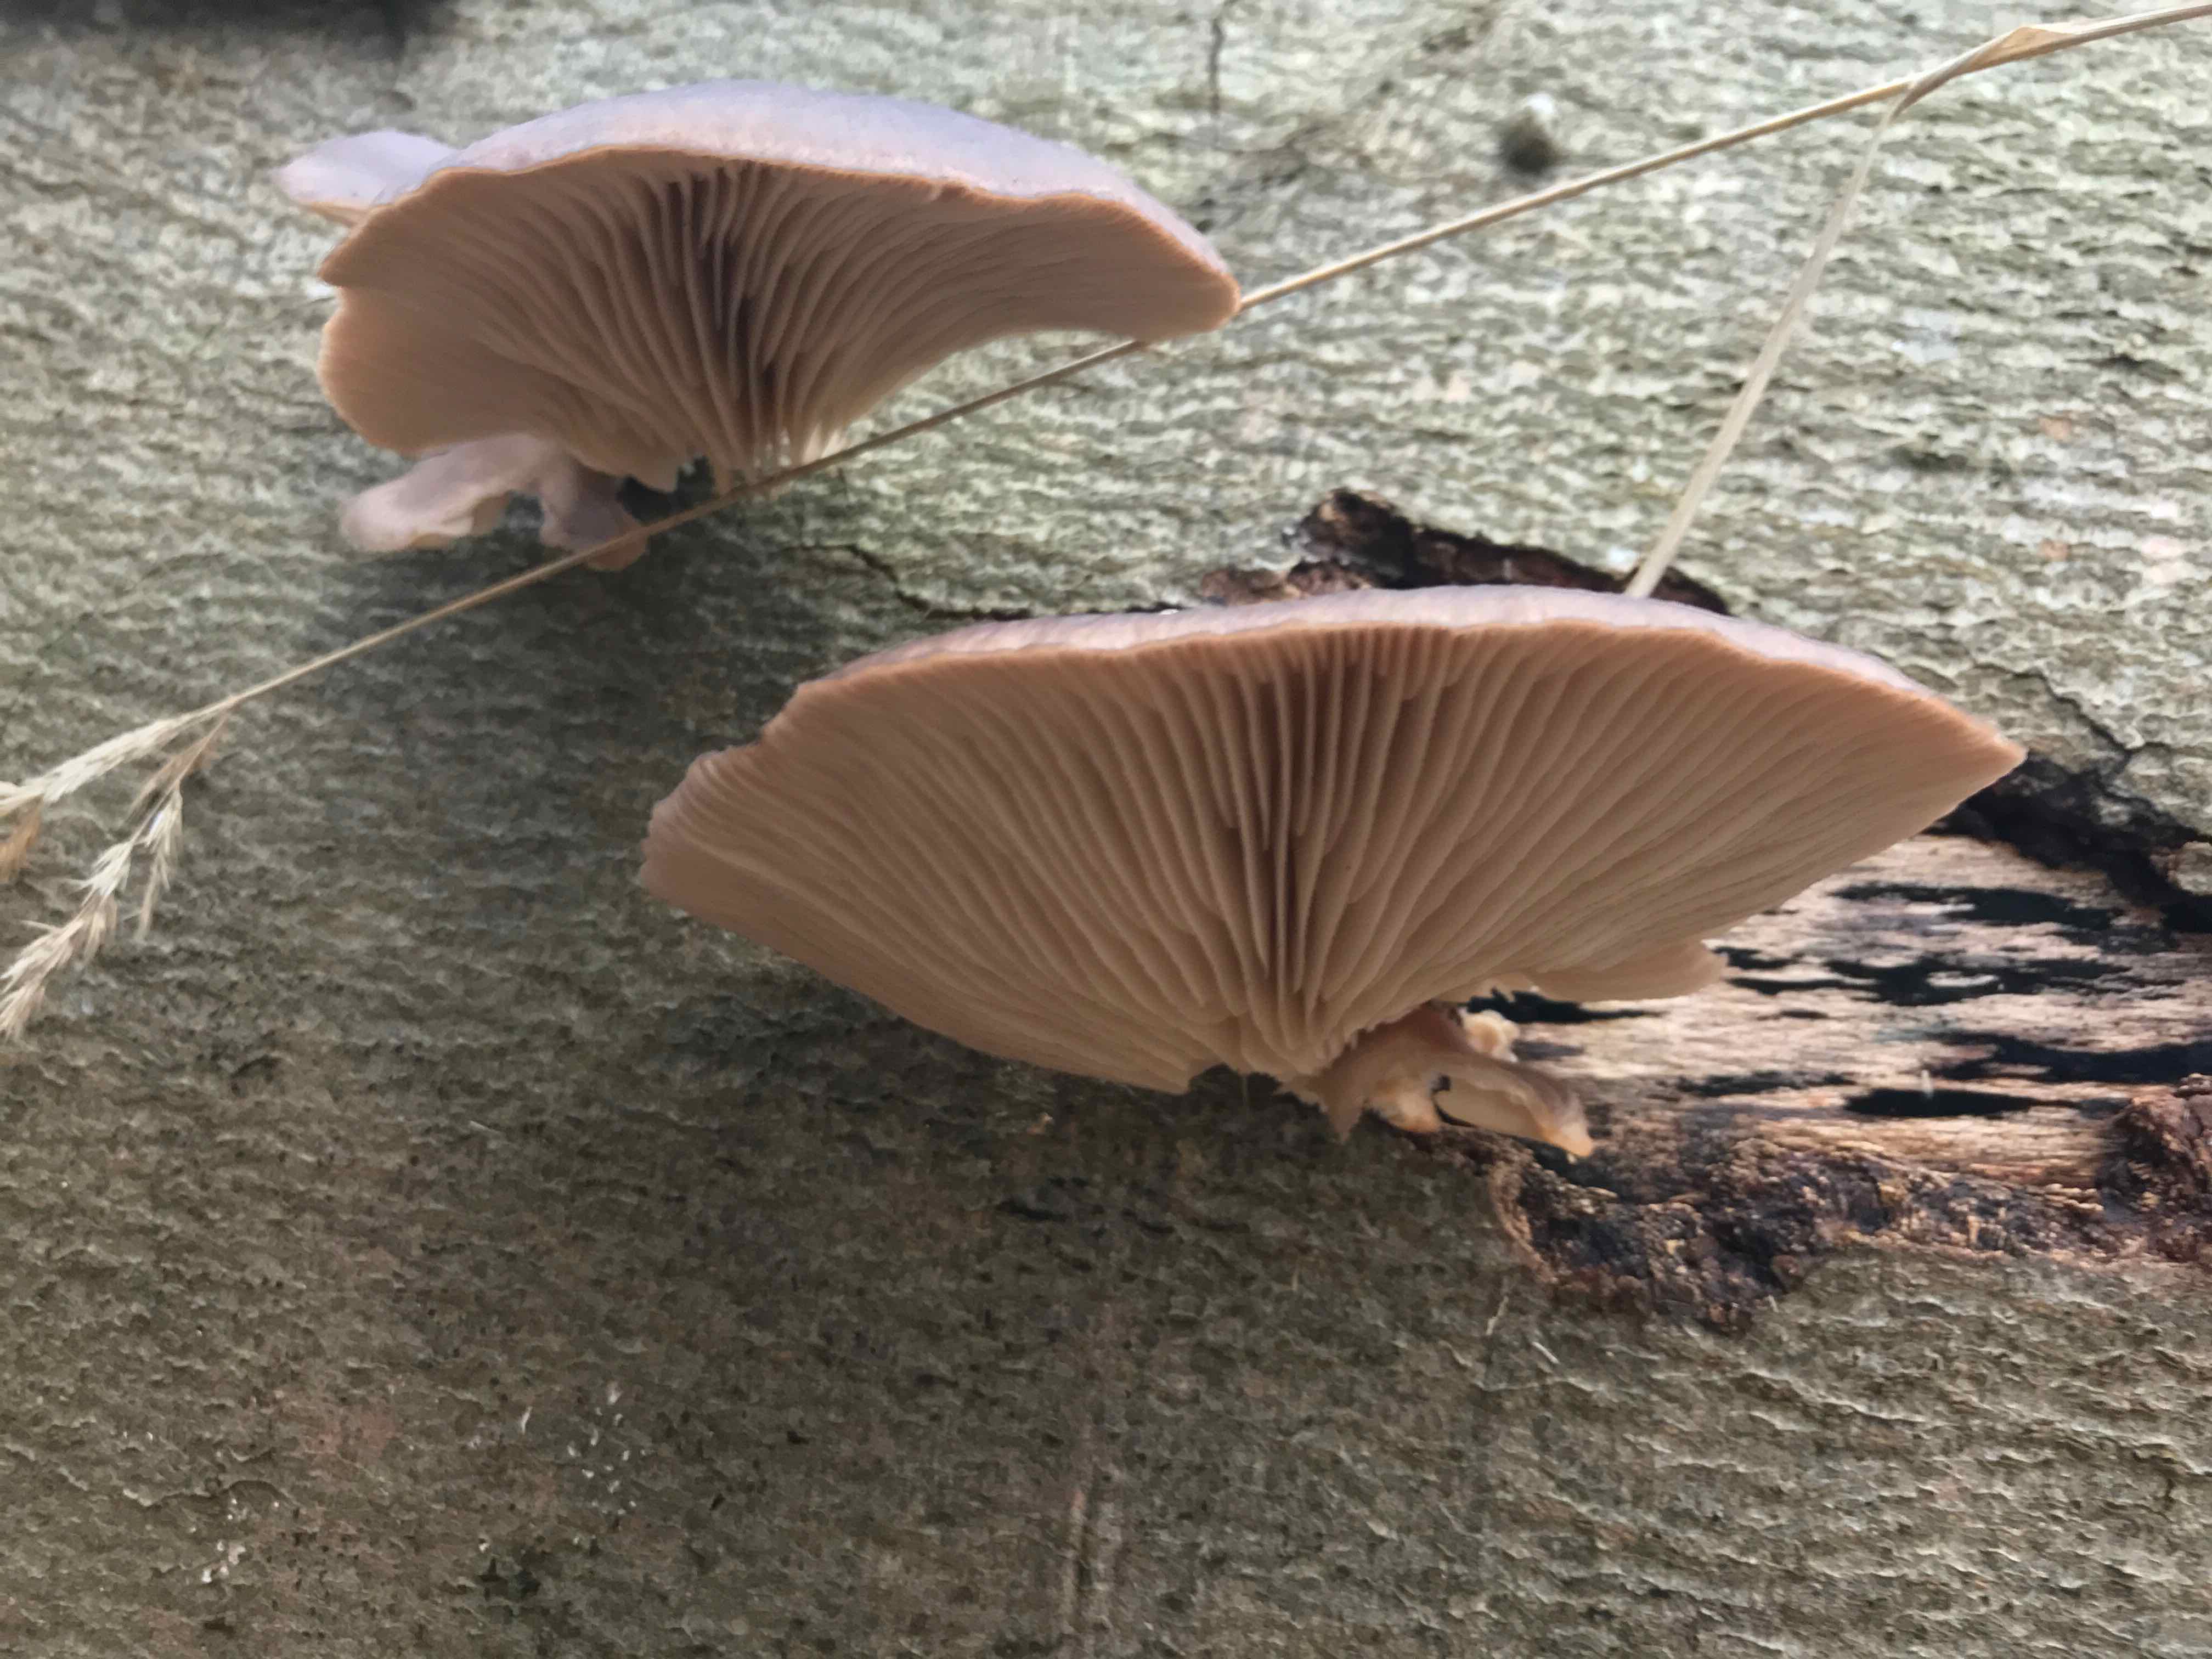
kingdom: Fungi
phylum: Basidiomycota
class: Agaricomycetes
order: Agaricales
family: Pleurotaceae
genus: Pleurotus
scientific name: Pleurotus ostreatus
